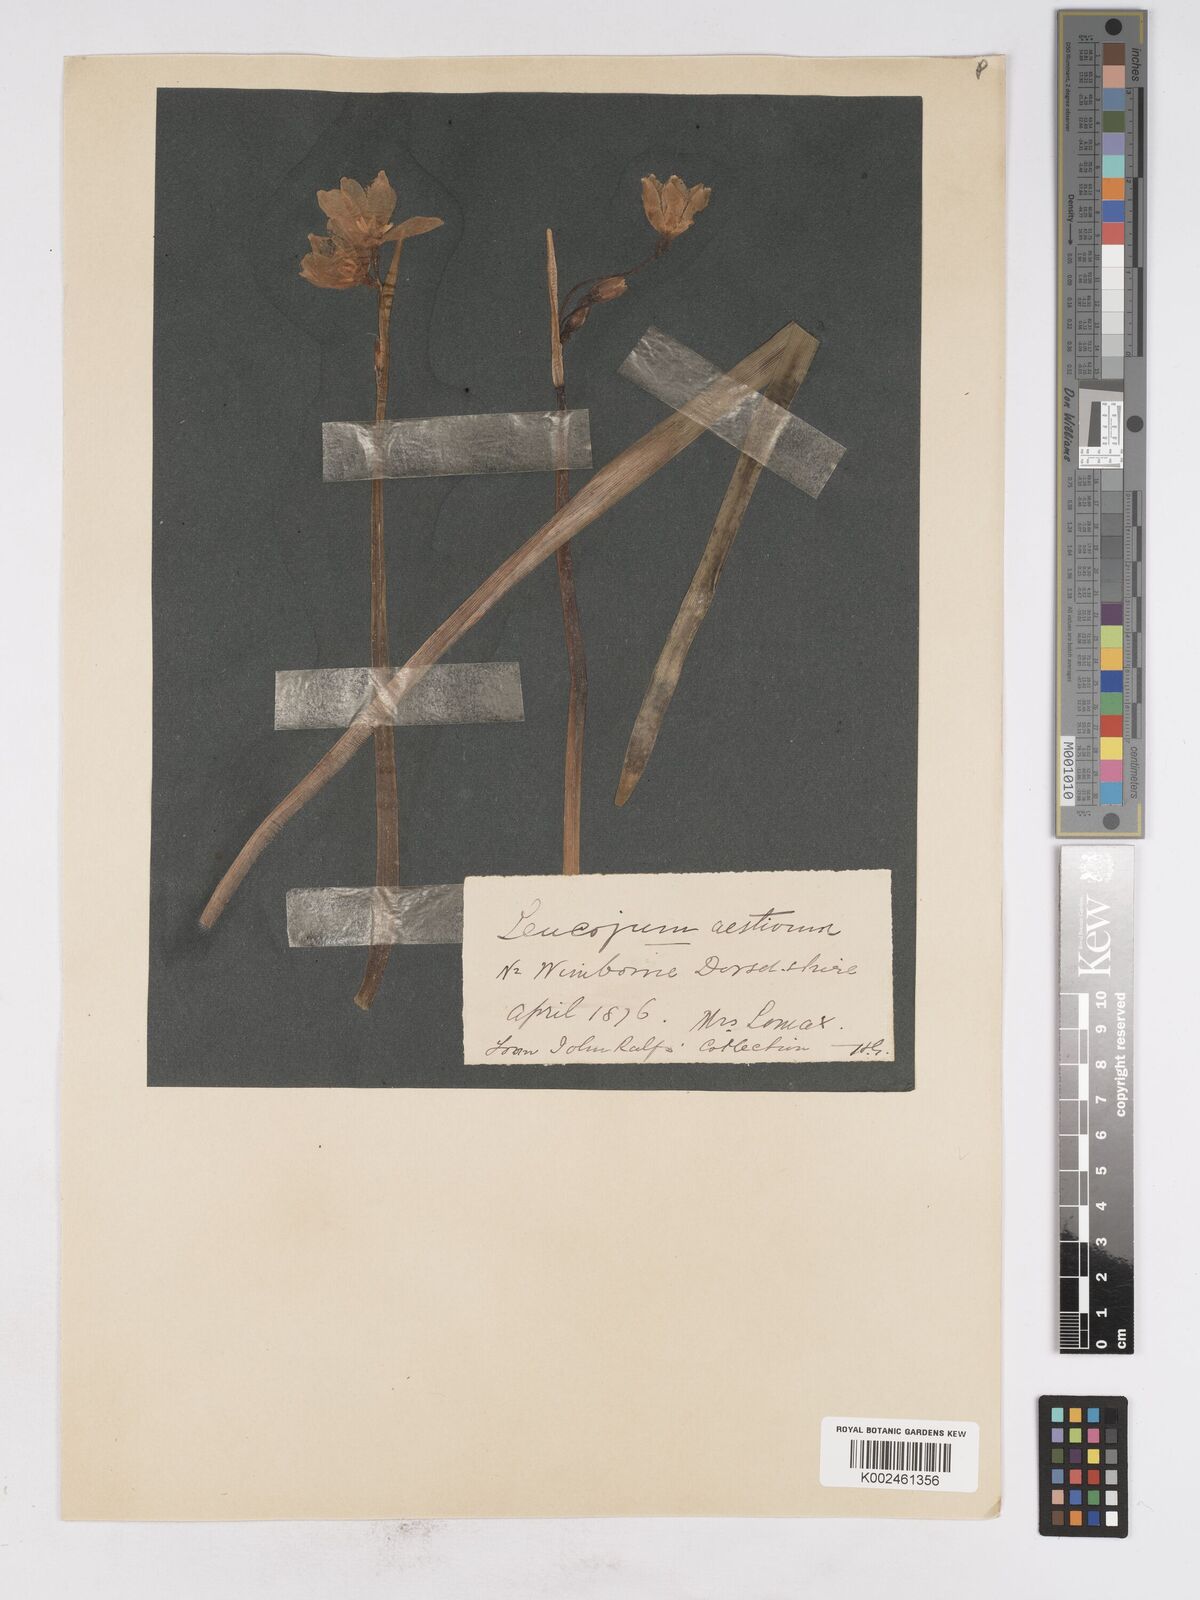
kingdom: Plantae
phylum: Tracheophyta
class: Liliopsida
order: Asparagales
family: Amaryllidaceae
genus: Leucojum
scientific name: Leucojum aestivum
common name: Summer snowflake
